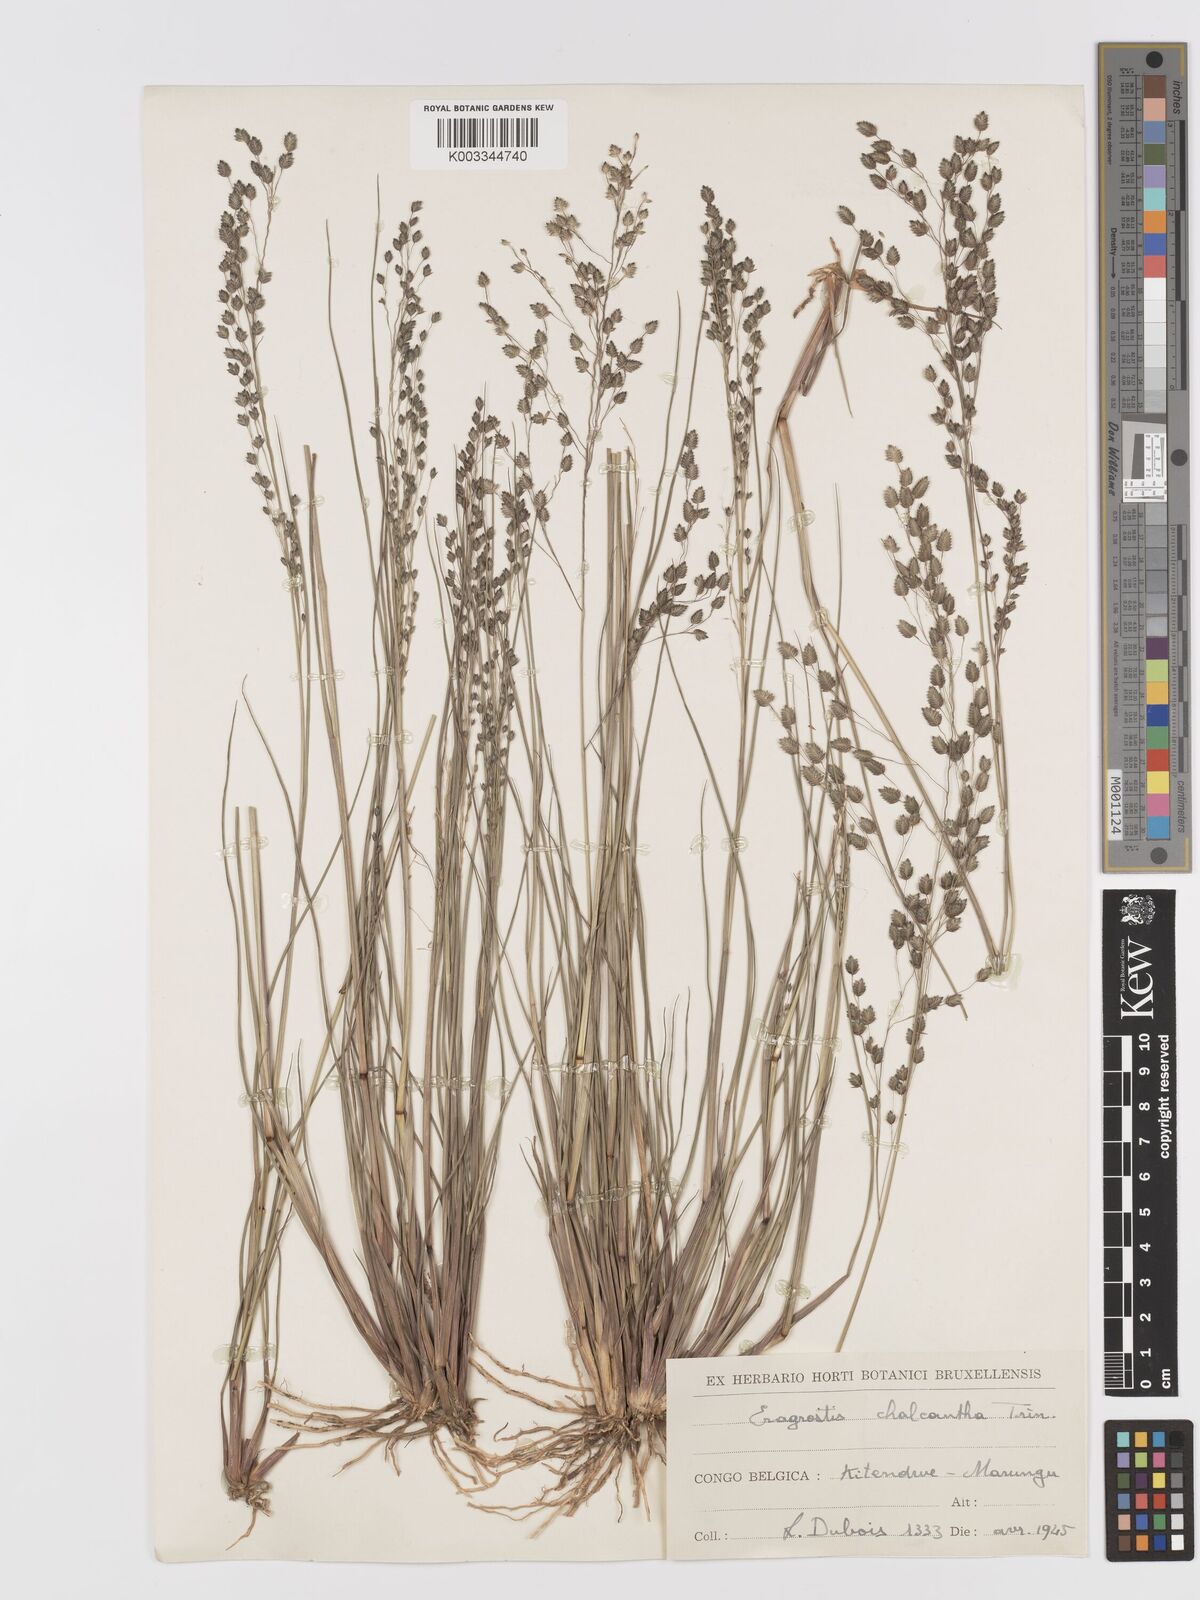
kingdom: Plantae
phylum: Tracheophyta
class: Liliopsida
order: Poales
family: Poaceae
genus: Eragrostis
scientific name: Eragrostis paniciformis
